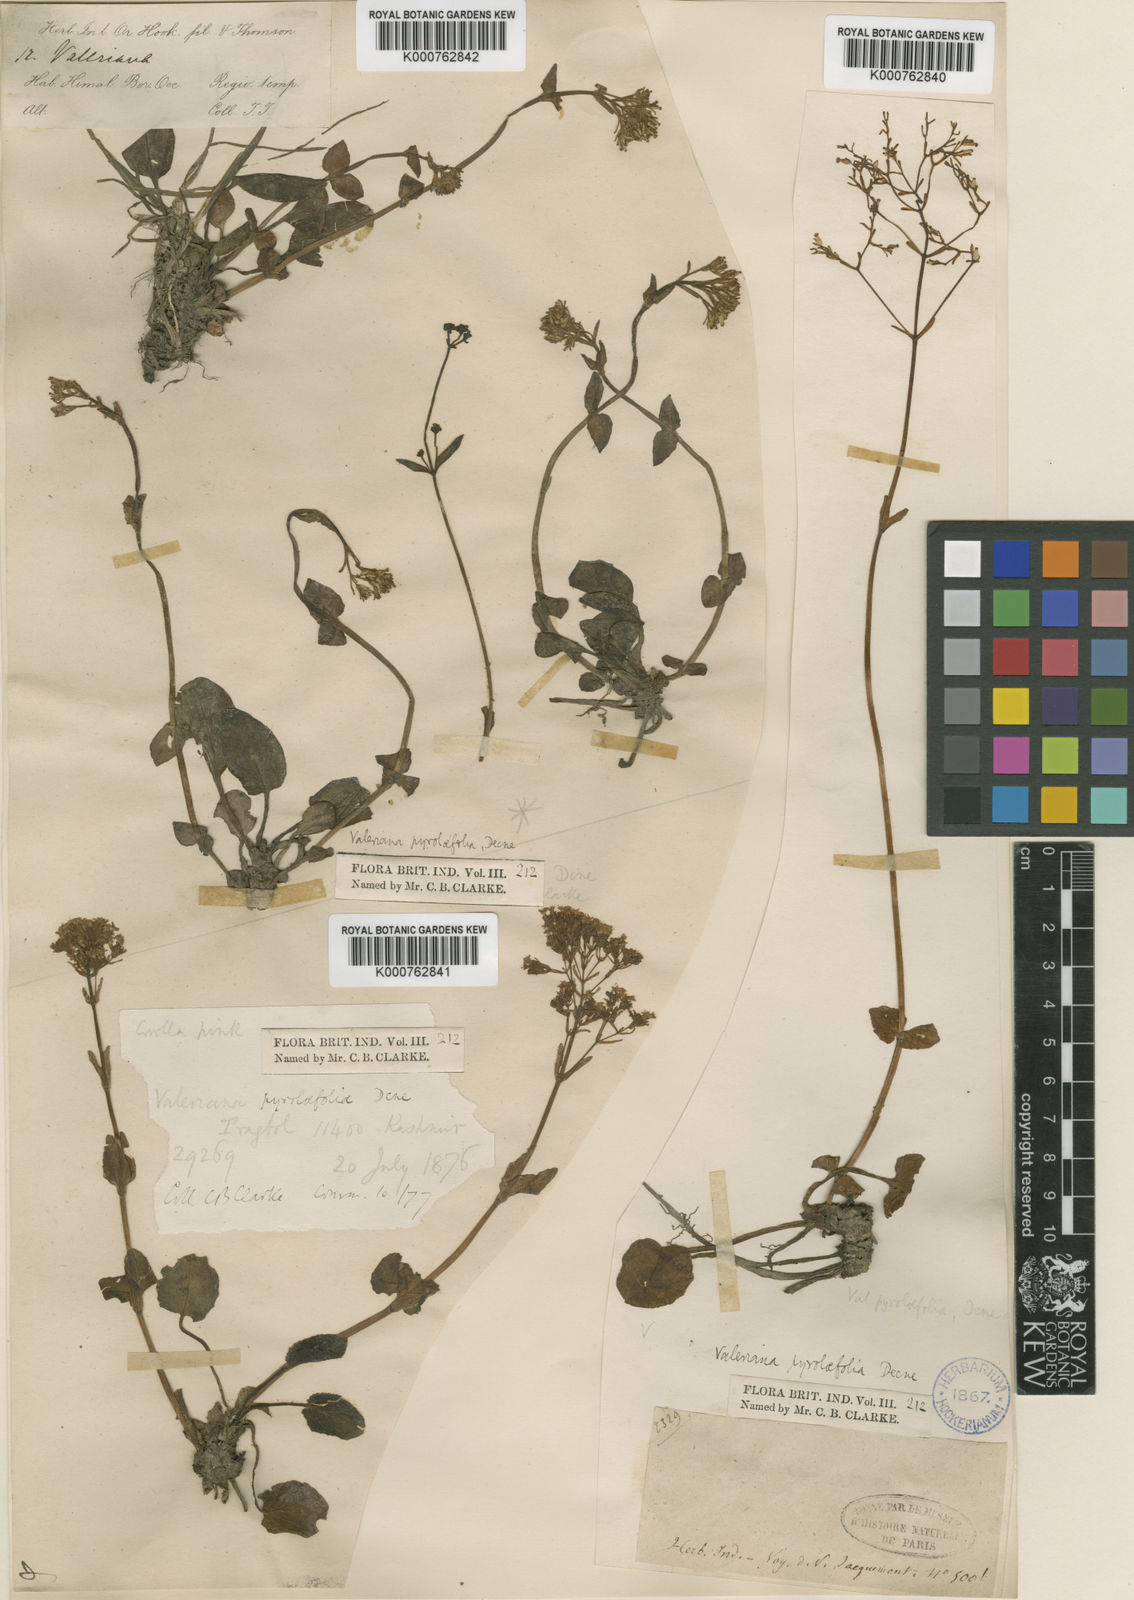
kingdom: Plantae
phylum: Tracheophyta
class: Magnoliopsida
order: Dipsacales
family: Caprifoliaceae
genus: Valeriana
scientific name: Valeriana pyrolifolia
